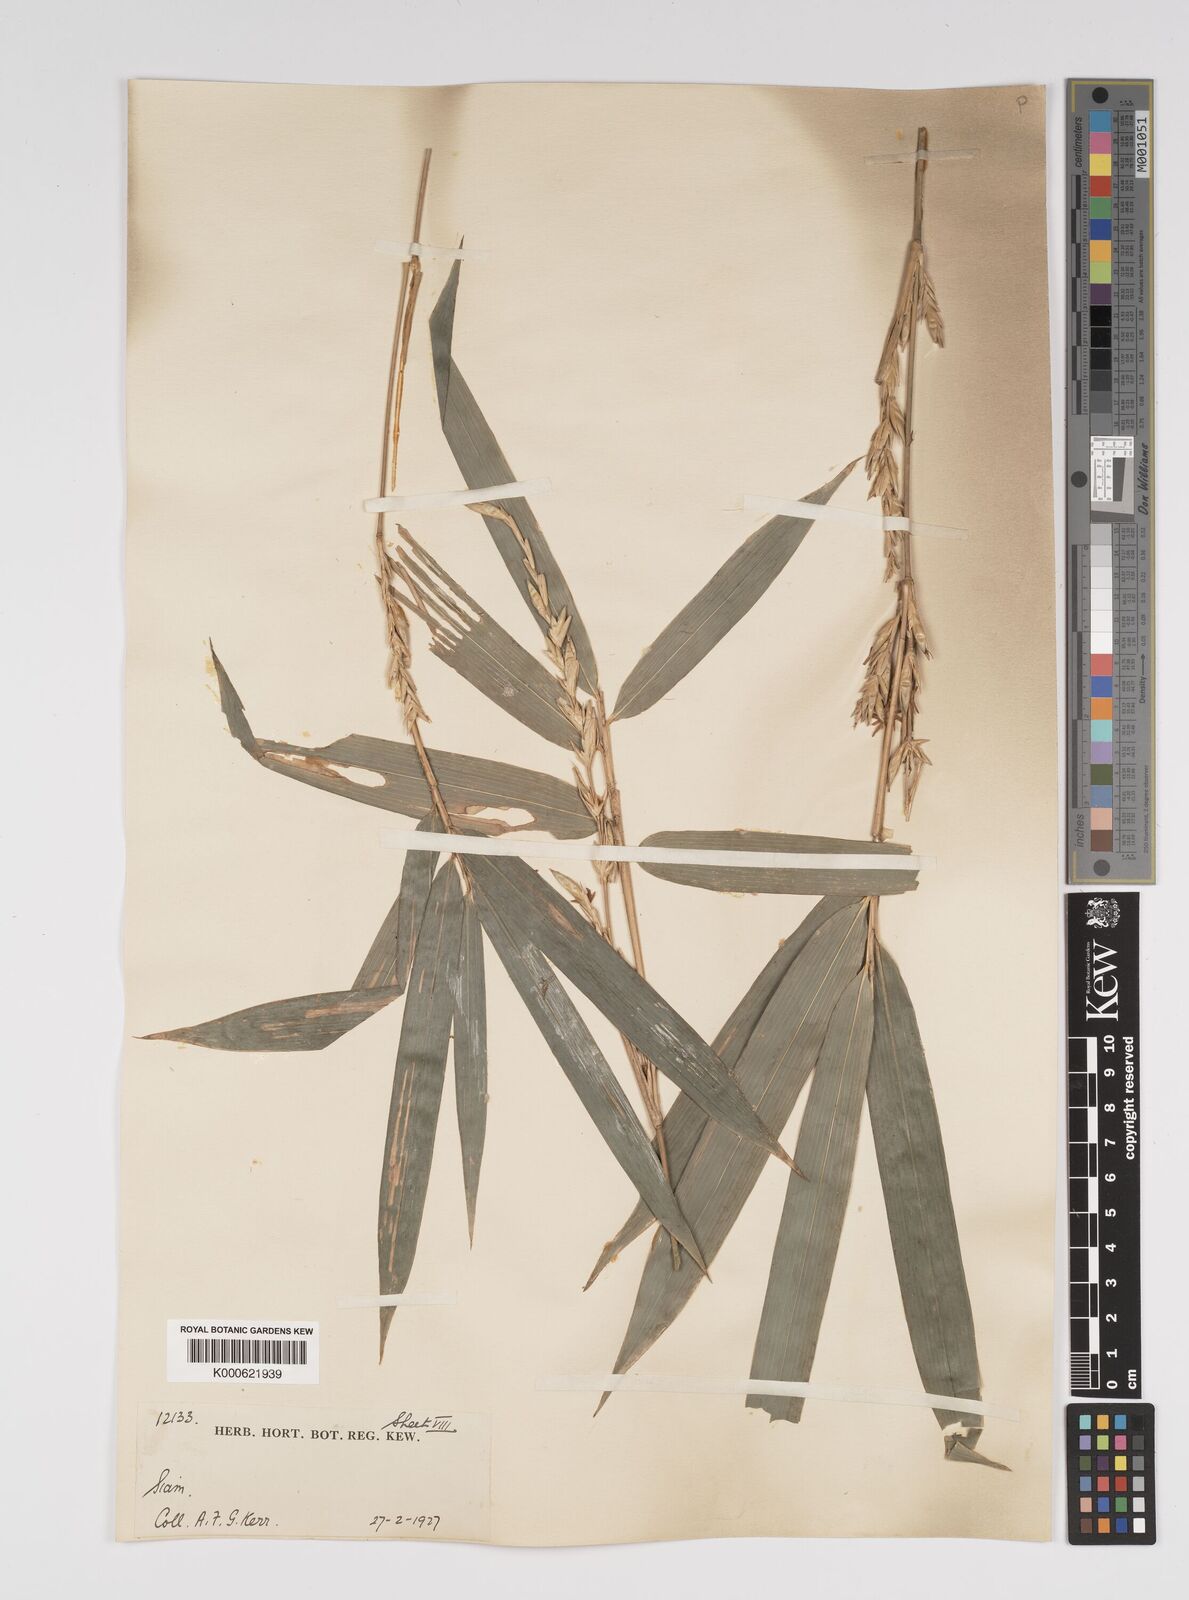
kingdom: Plantae
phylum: Tracheophyta
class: Liliopsida
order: Poales
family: Poaceae
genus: Bambusa
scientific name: Bambusa
